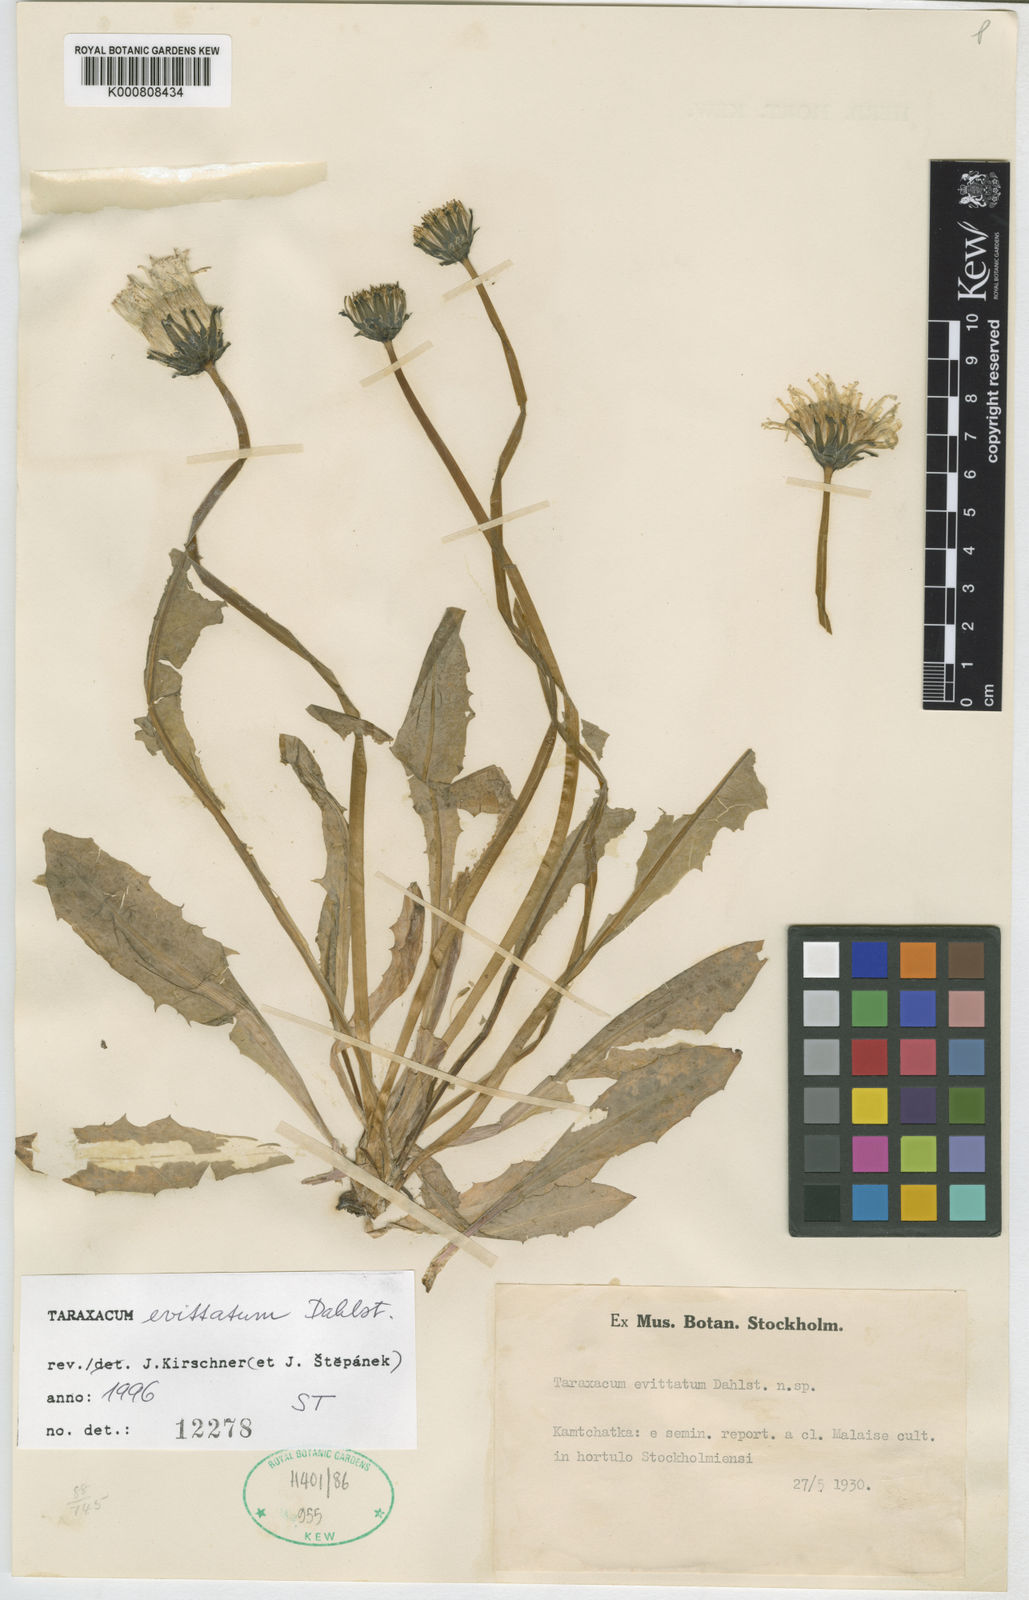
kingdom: Plantae
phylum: Tracheophyta
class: Magnoliopsida
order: Asterales
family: Asteraceae
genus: Taraxacum
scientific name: Taraxacum ceratophorum
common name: Horn-bearing dandelion
